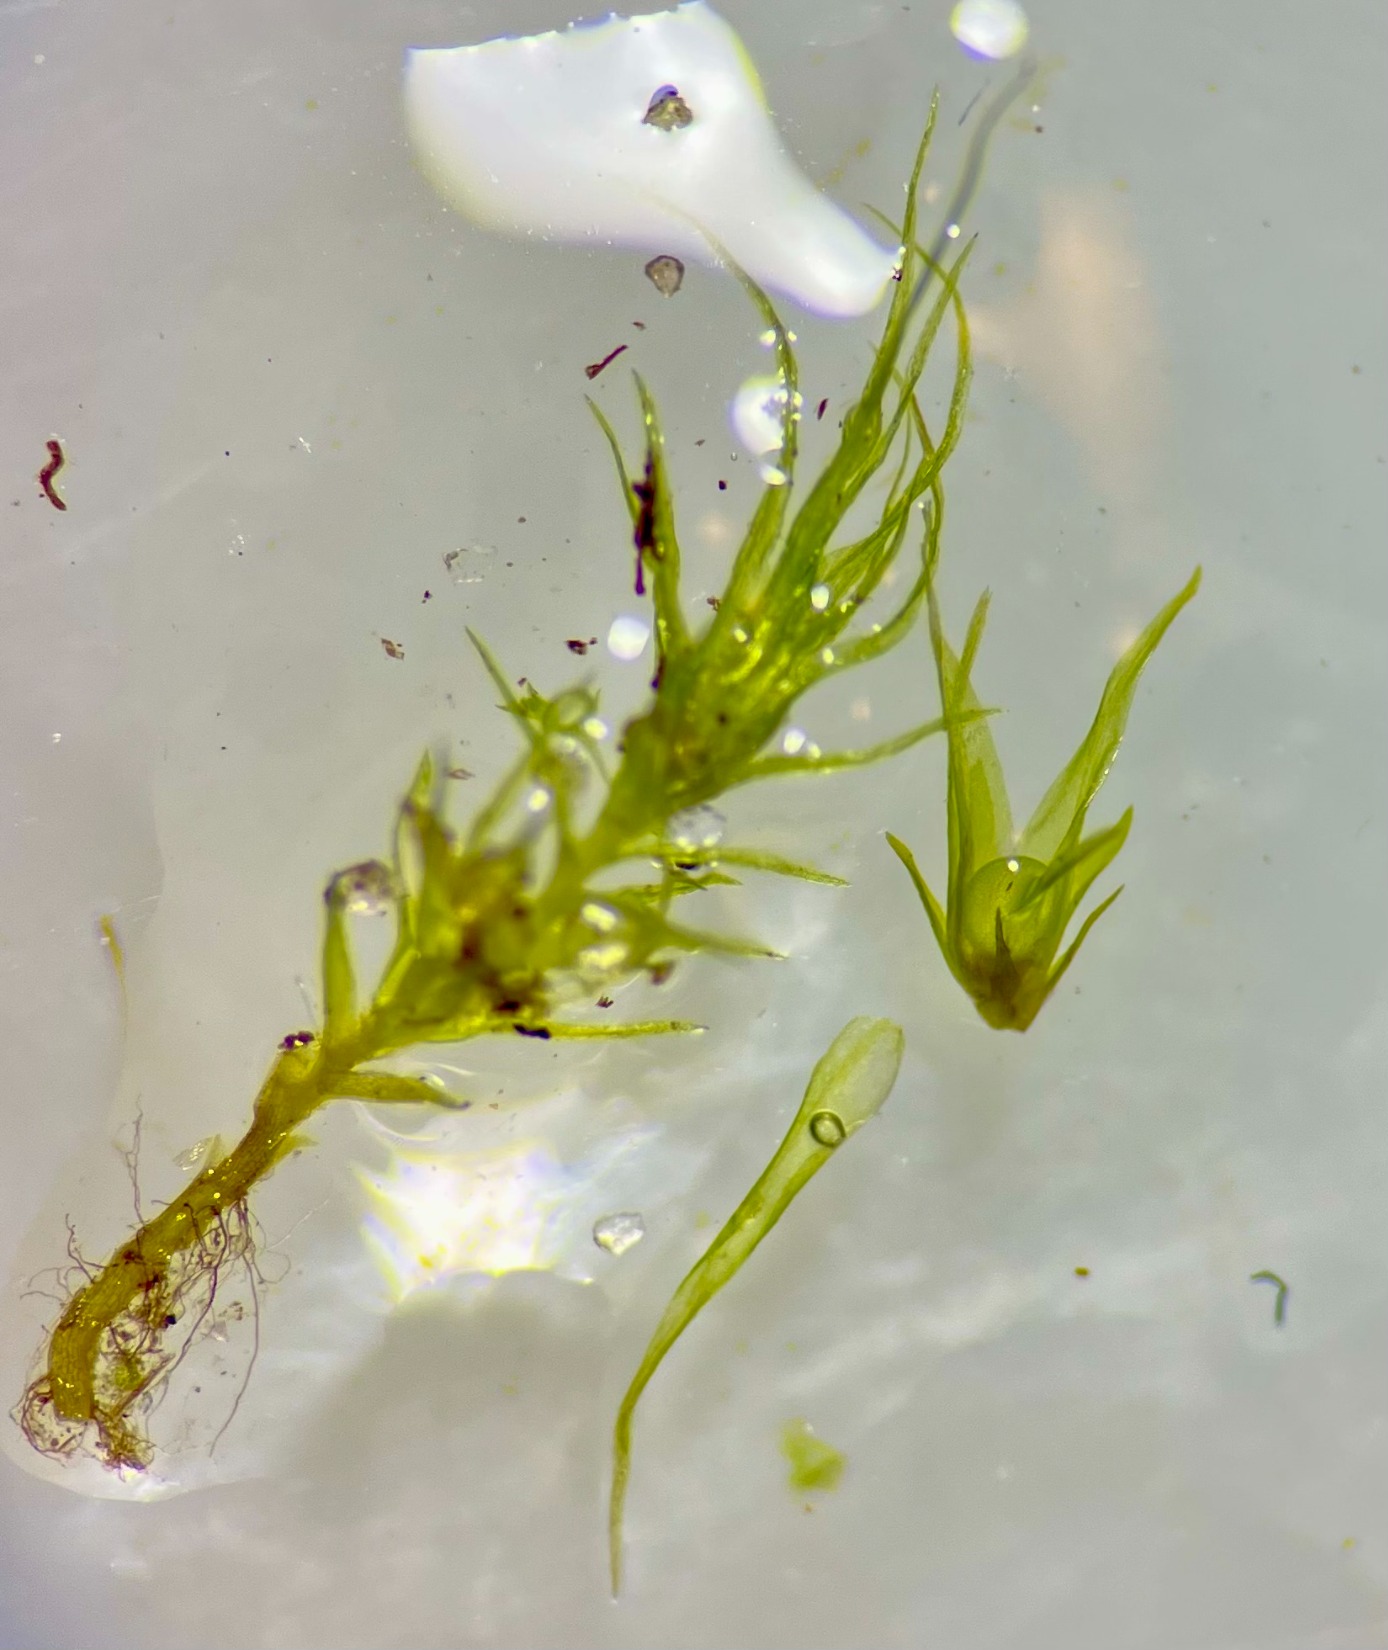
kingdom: Plantae
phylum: Bryophyta
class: Bryopsida
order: Archidiales
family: Archidiaceae
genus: Archidium
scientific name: Archidium alternifolium
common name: Stor sporemos
